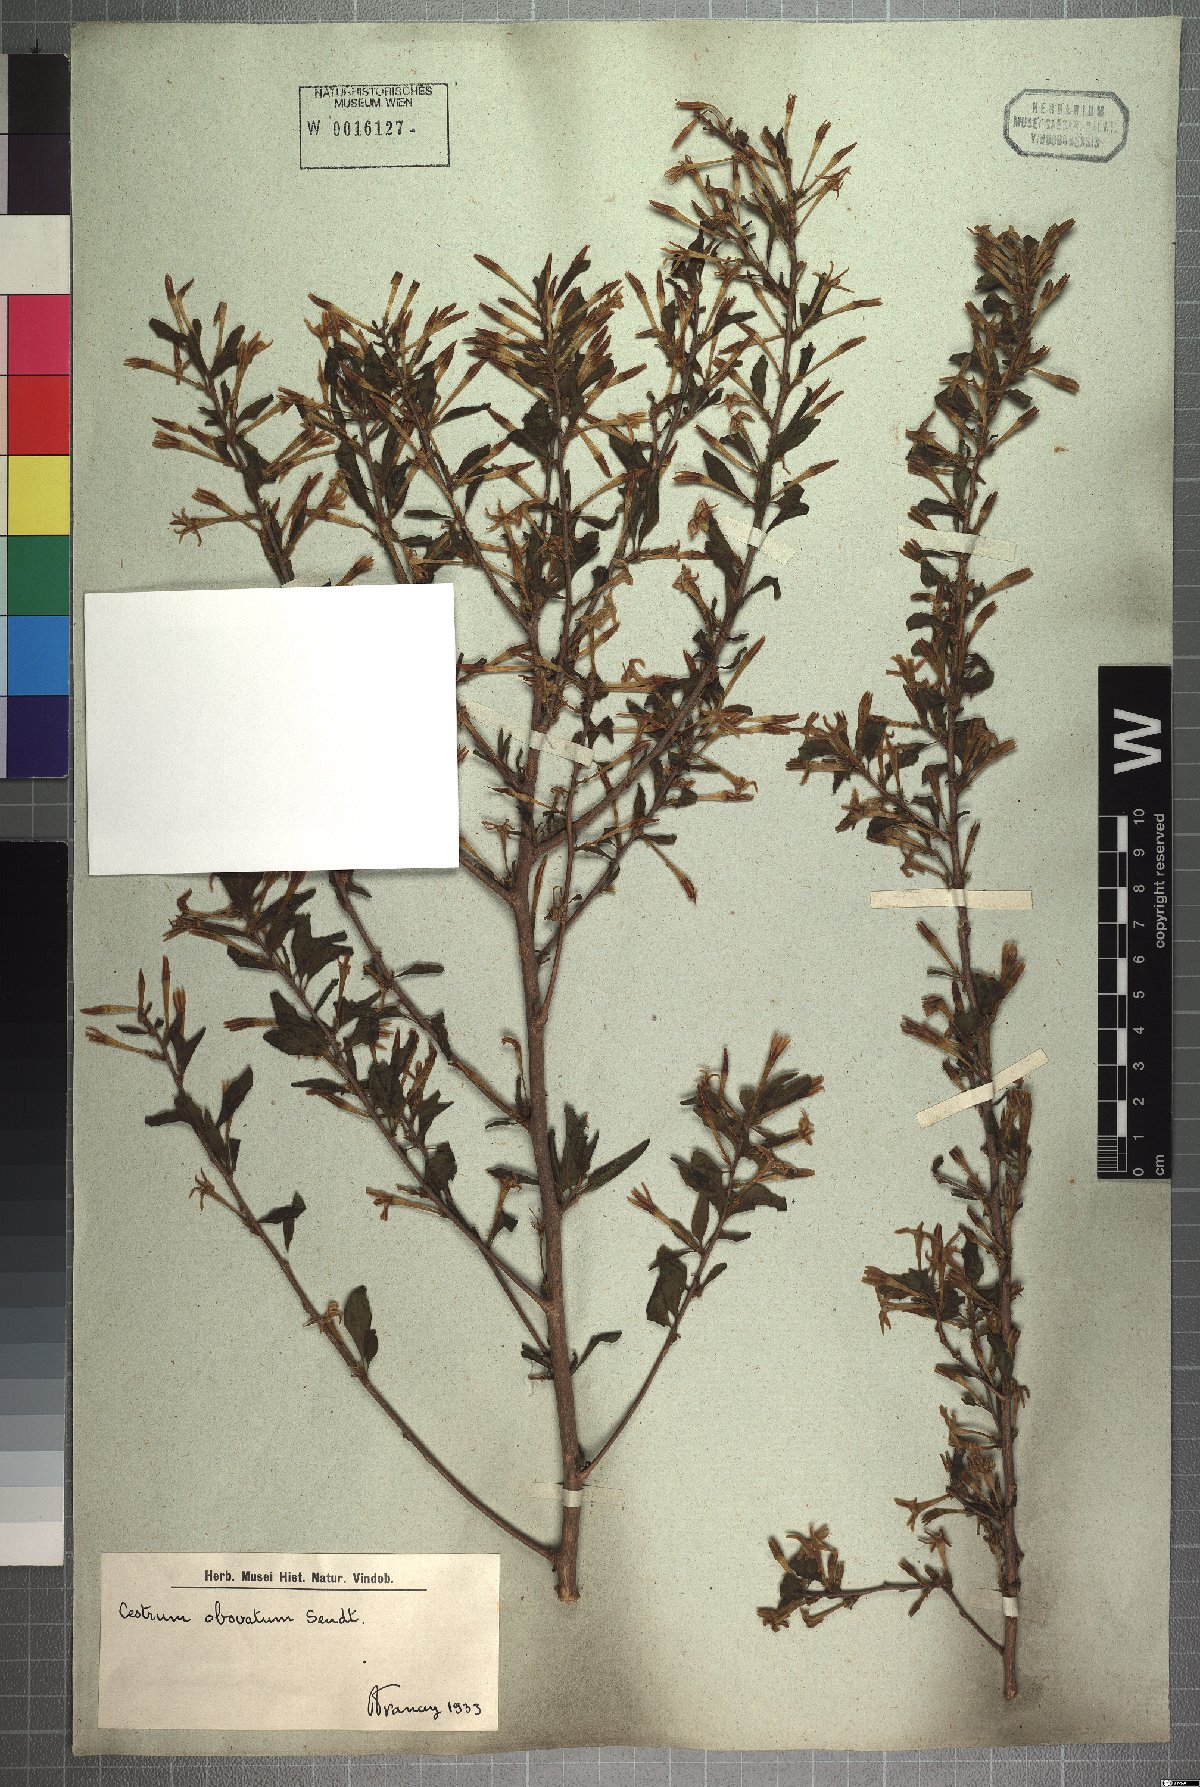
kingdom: Plantae
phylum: Tracheophyta
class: Magnoliopsida
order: Solanales
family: Solanaceae
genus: Cestrum
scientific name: Cestrum obovatum
